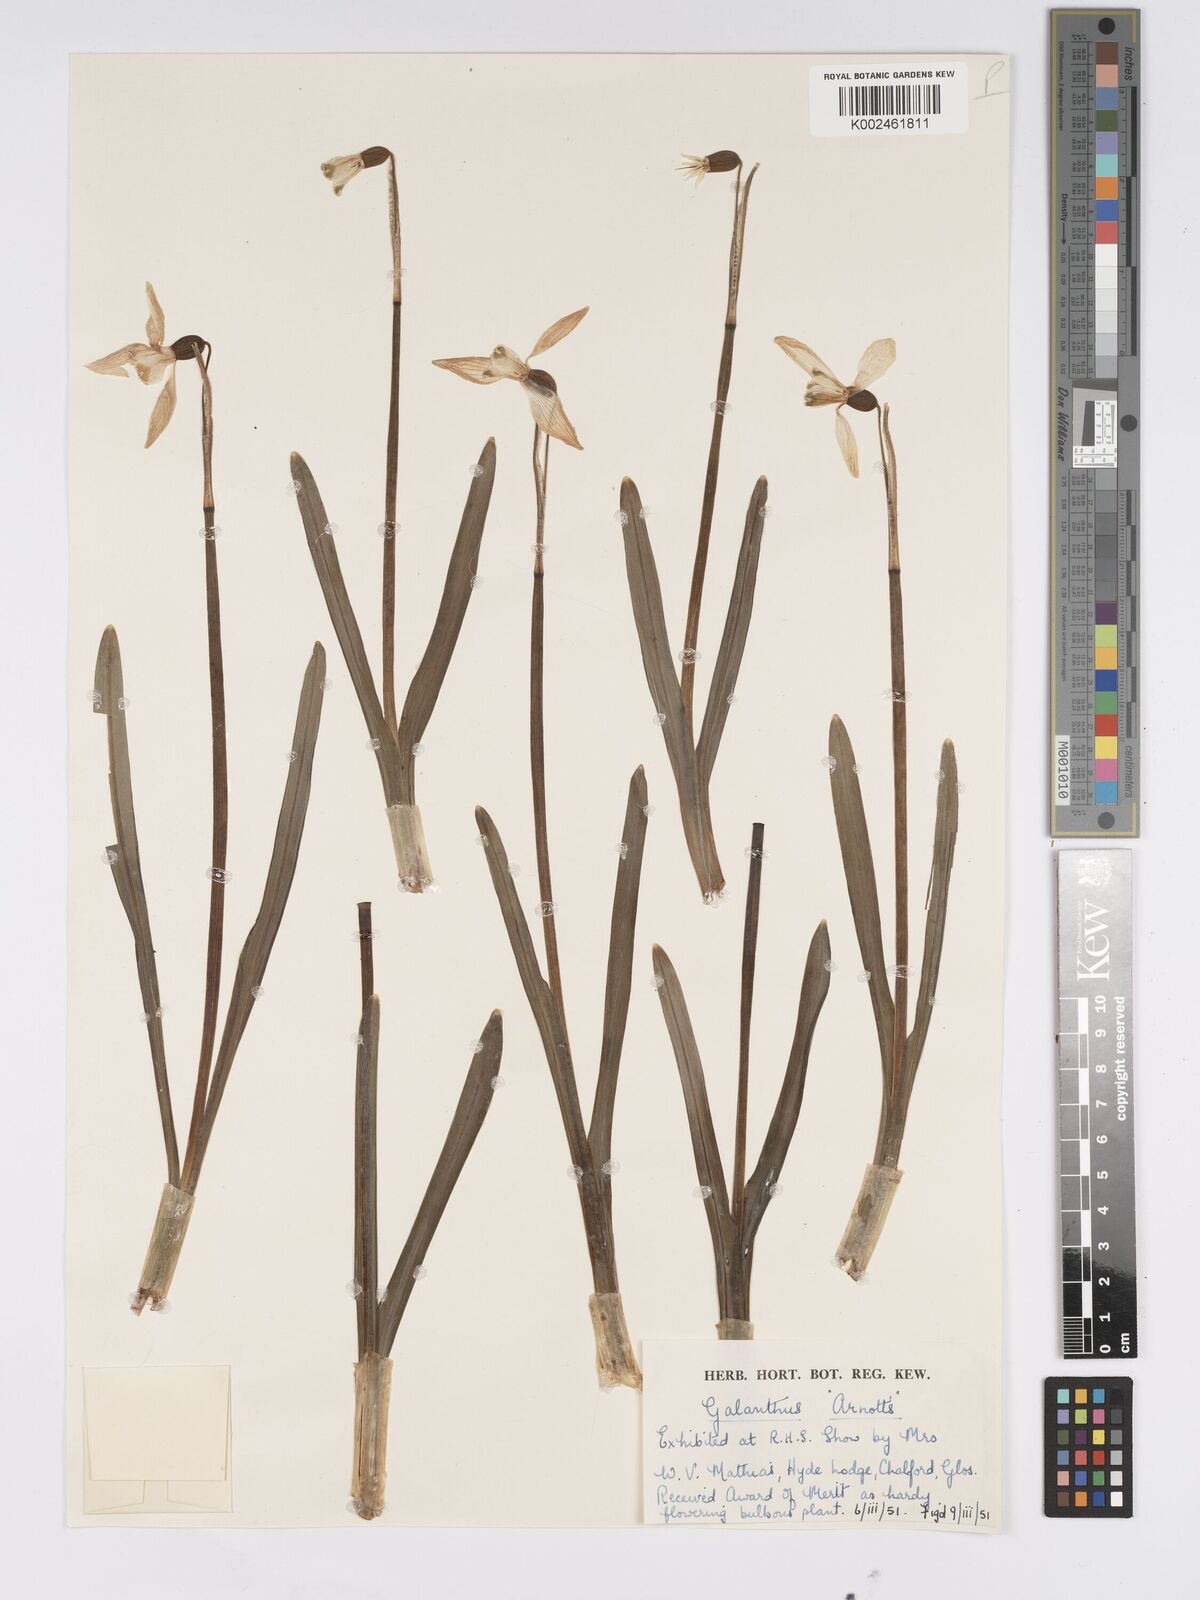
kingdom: Plantae
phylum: Tracheophyta
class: Liliopsida
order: Asparagales
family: Amaryllidaceae
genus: Galanthus
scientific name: Galanthus
